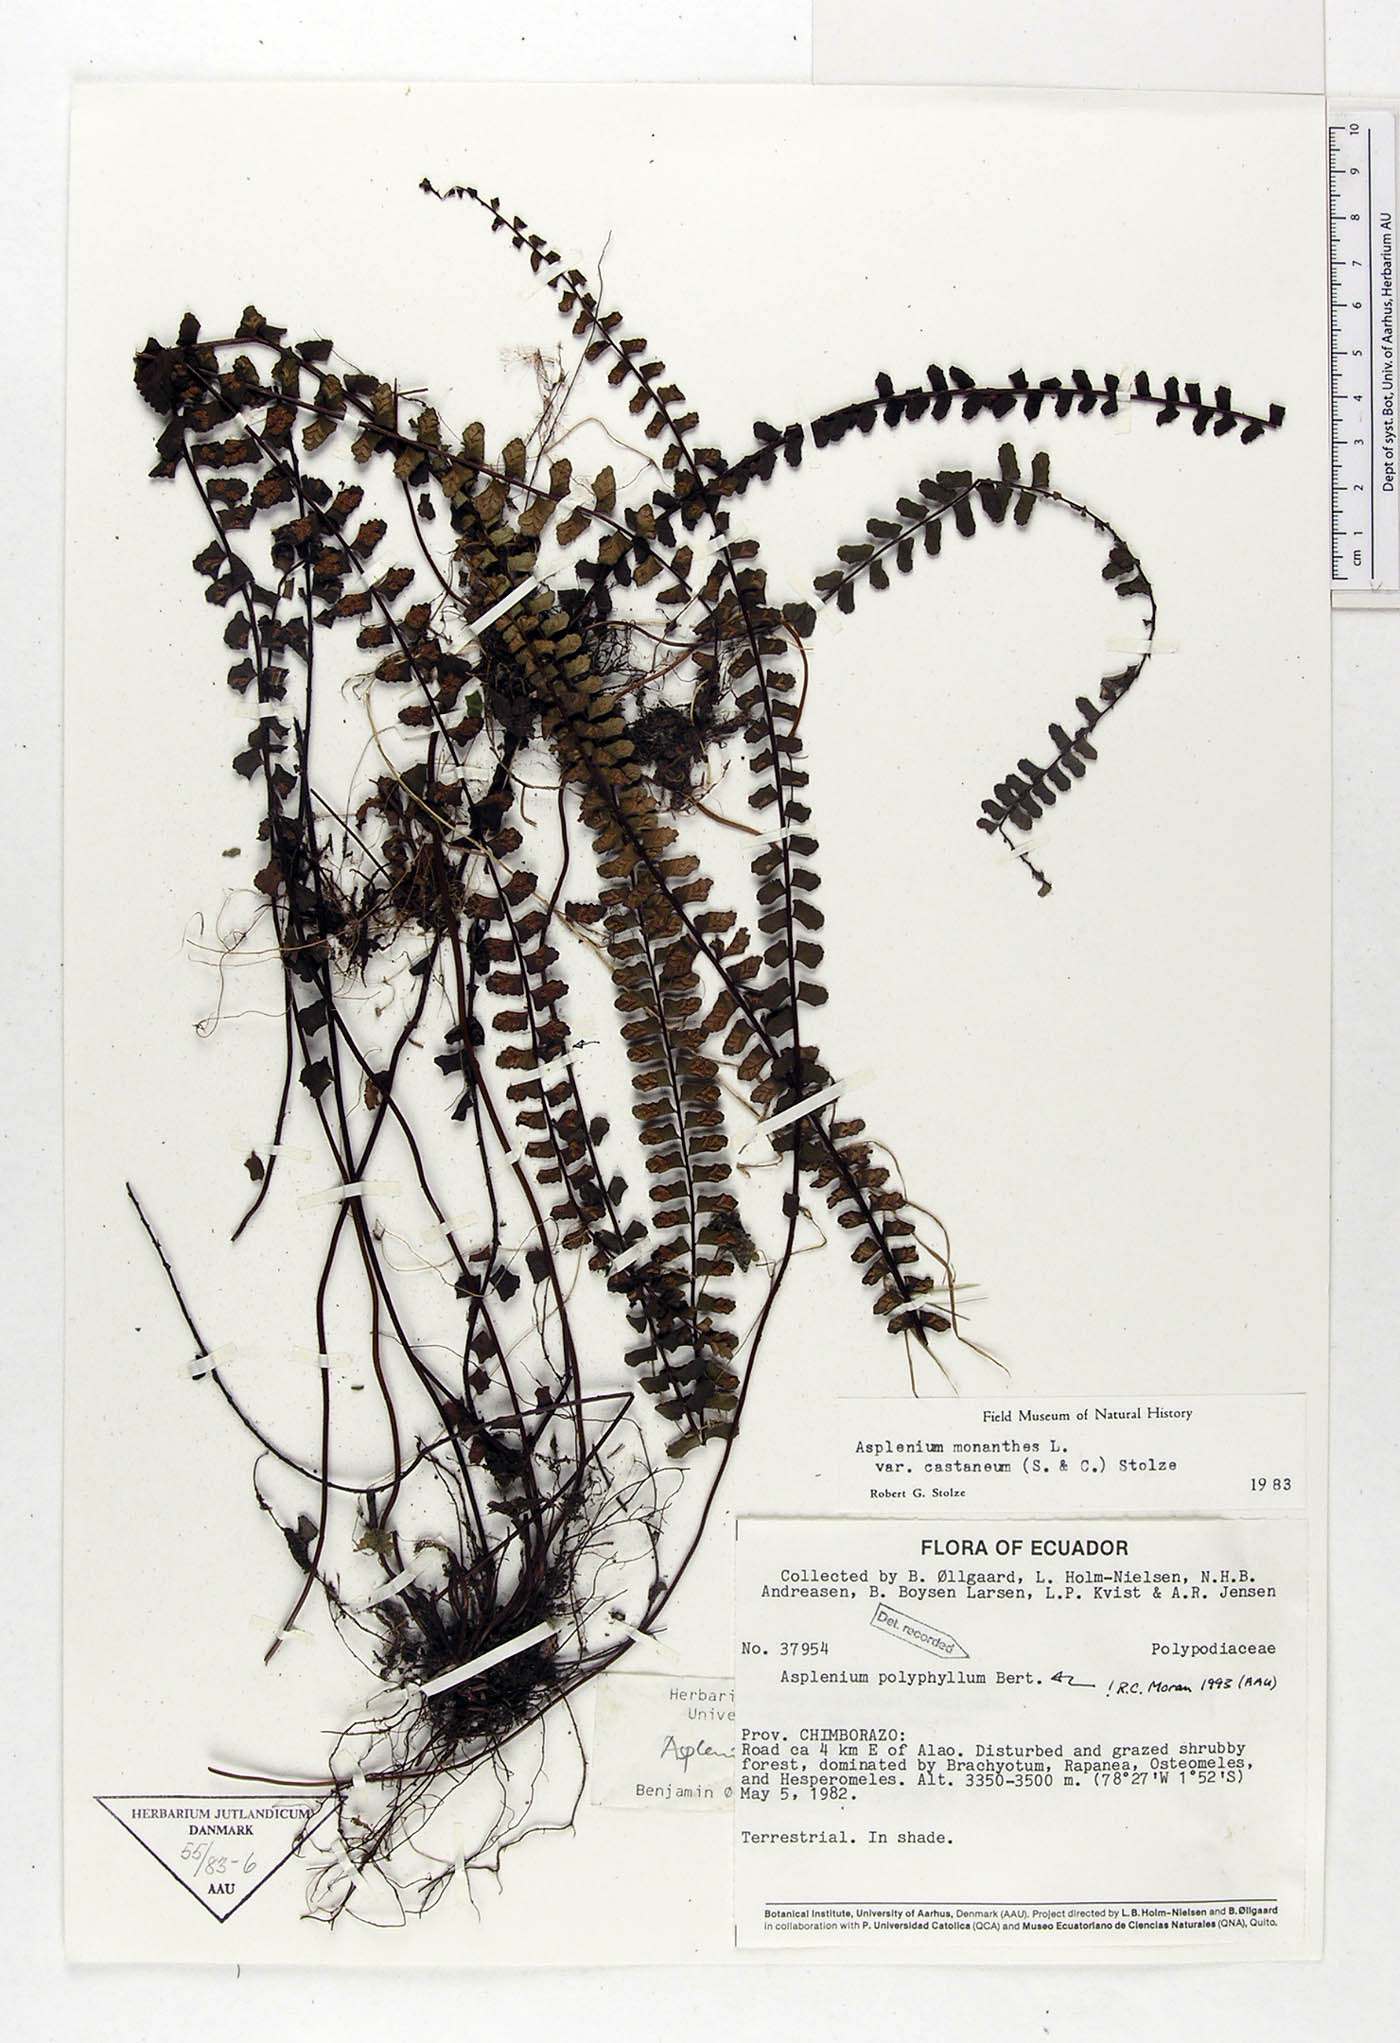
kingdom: Plantae
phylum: Tracheophyta
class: Polypodiopsida
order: Polypodiales
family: Aspleniaceae
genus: Asplenium
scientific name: Asplenium polyphyllum
